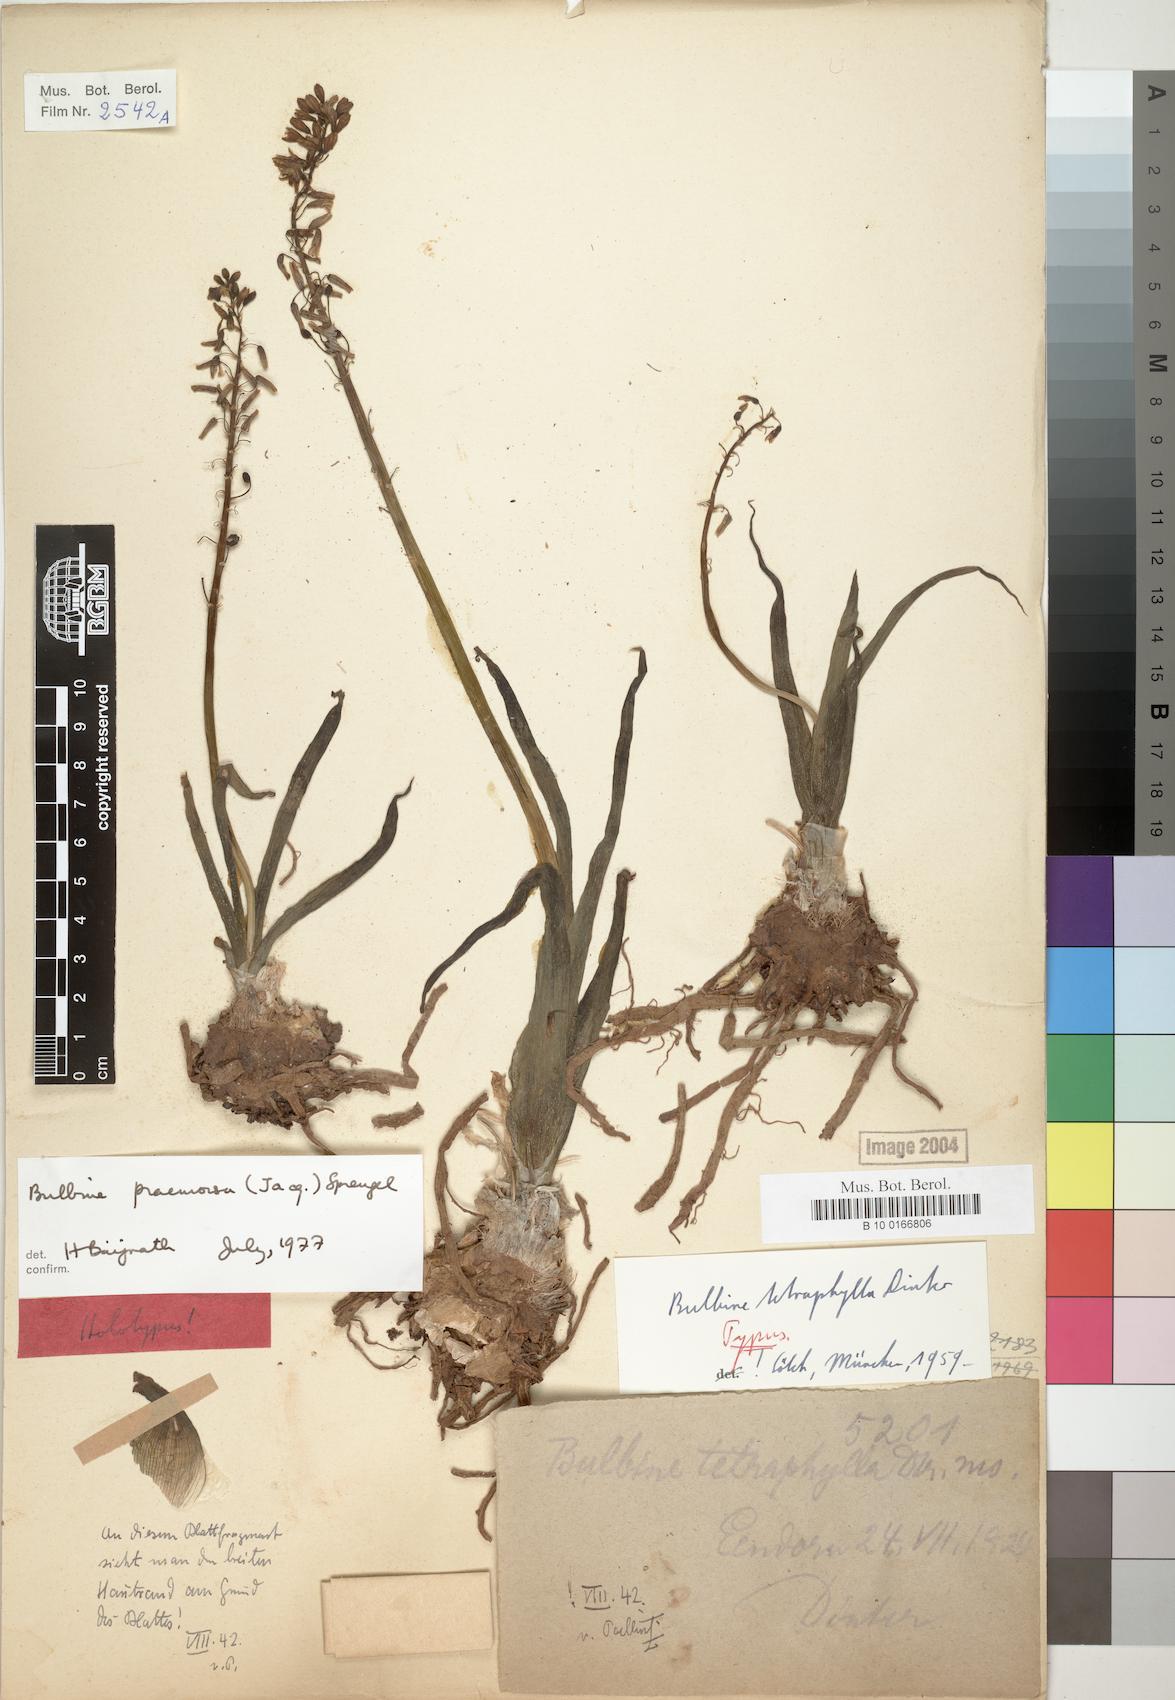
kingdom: Plantae
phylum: Tracheophyta
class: Liliopsida
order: Asparagales
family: Asphodelaceae
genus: Bulbine
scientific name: Bulbine praemorsa
